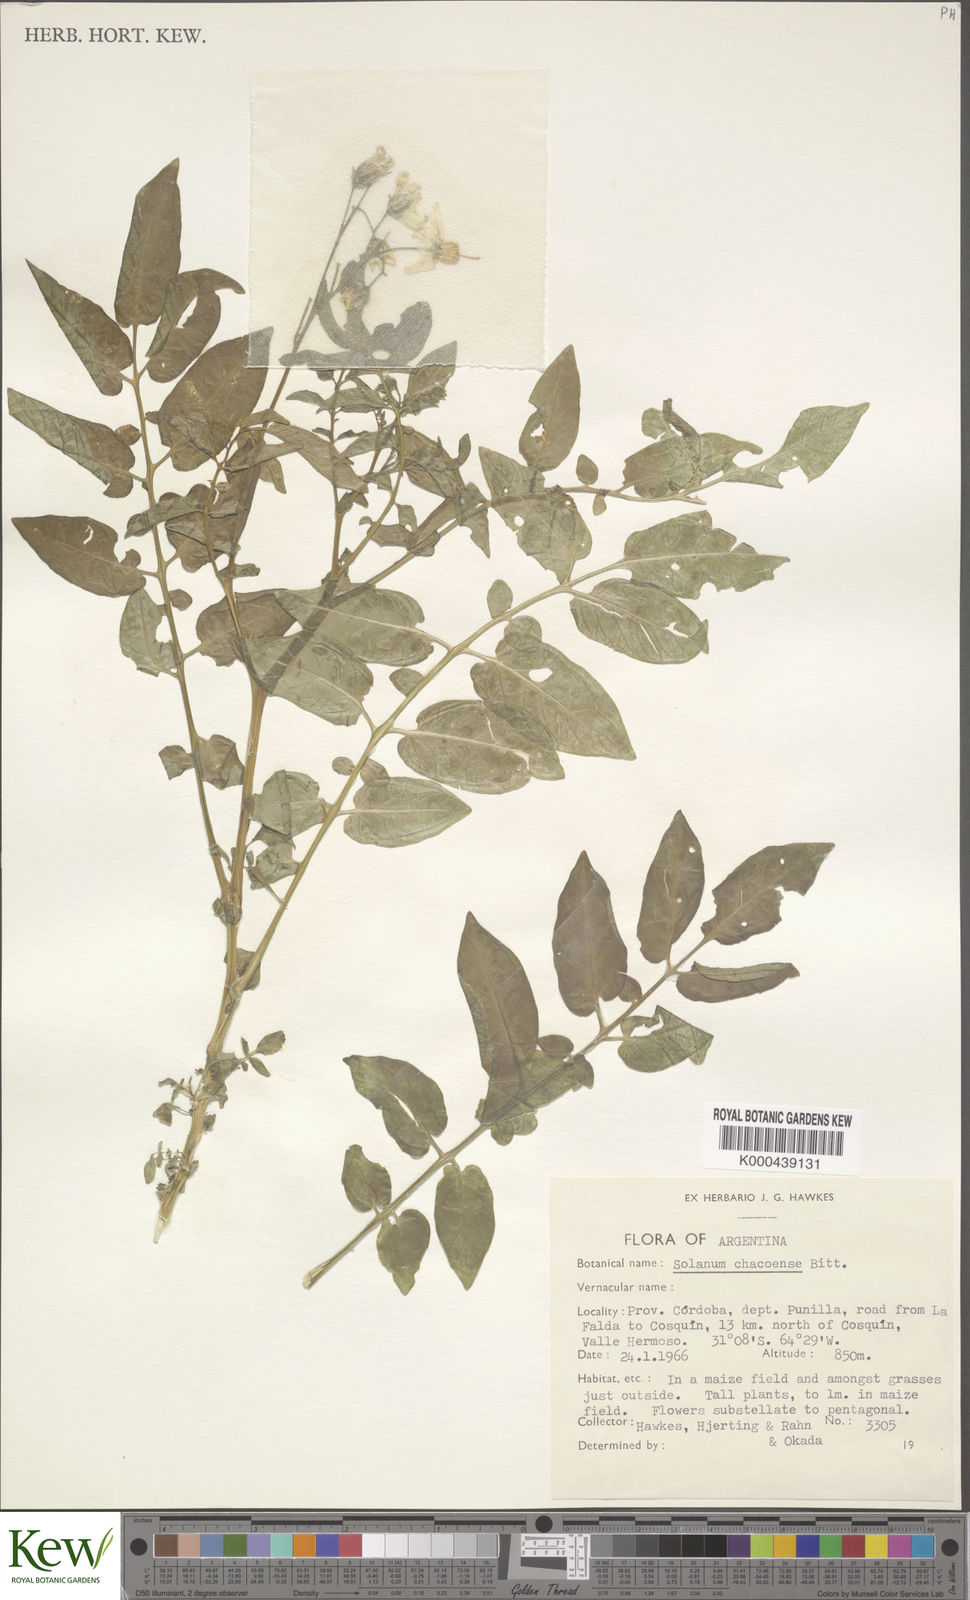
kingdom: Plantae
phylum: Tracheophyta
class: Magnoliopsida
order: Solanales
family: Solanaceae
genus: Solanum
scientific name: Solanum chacoense
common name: Chaco potato
